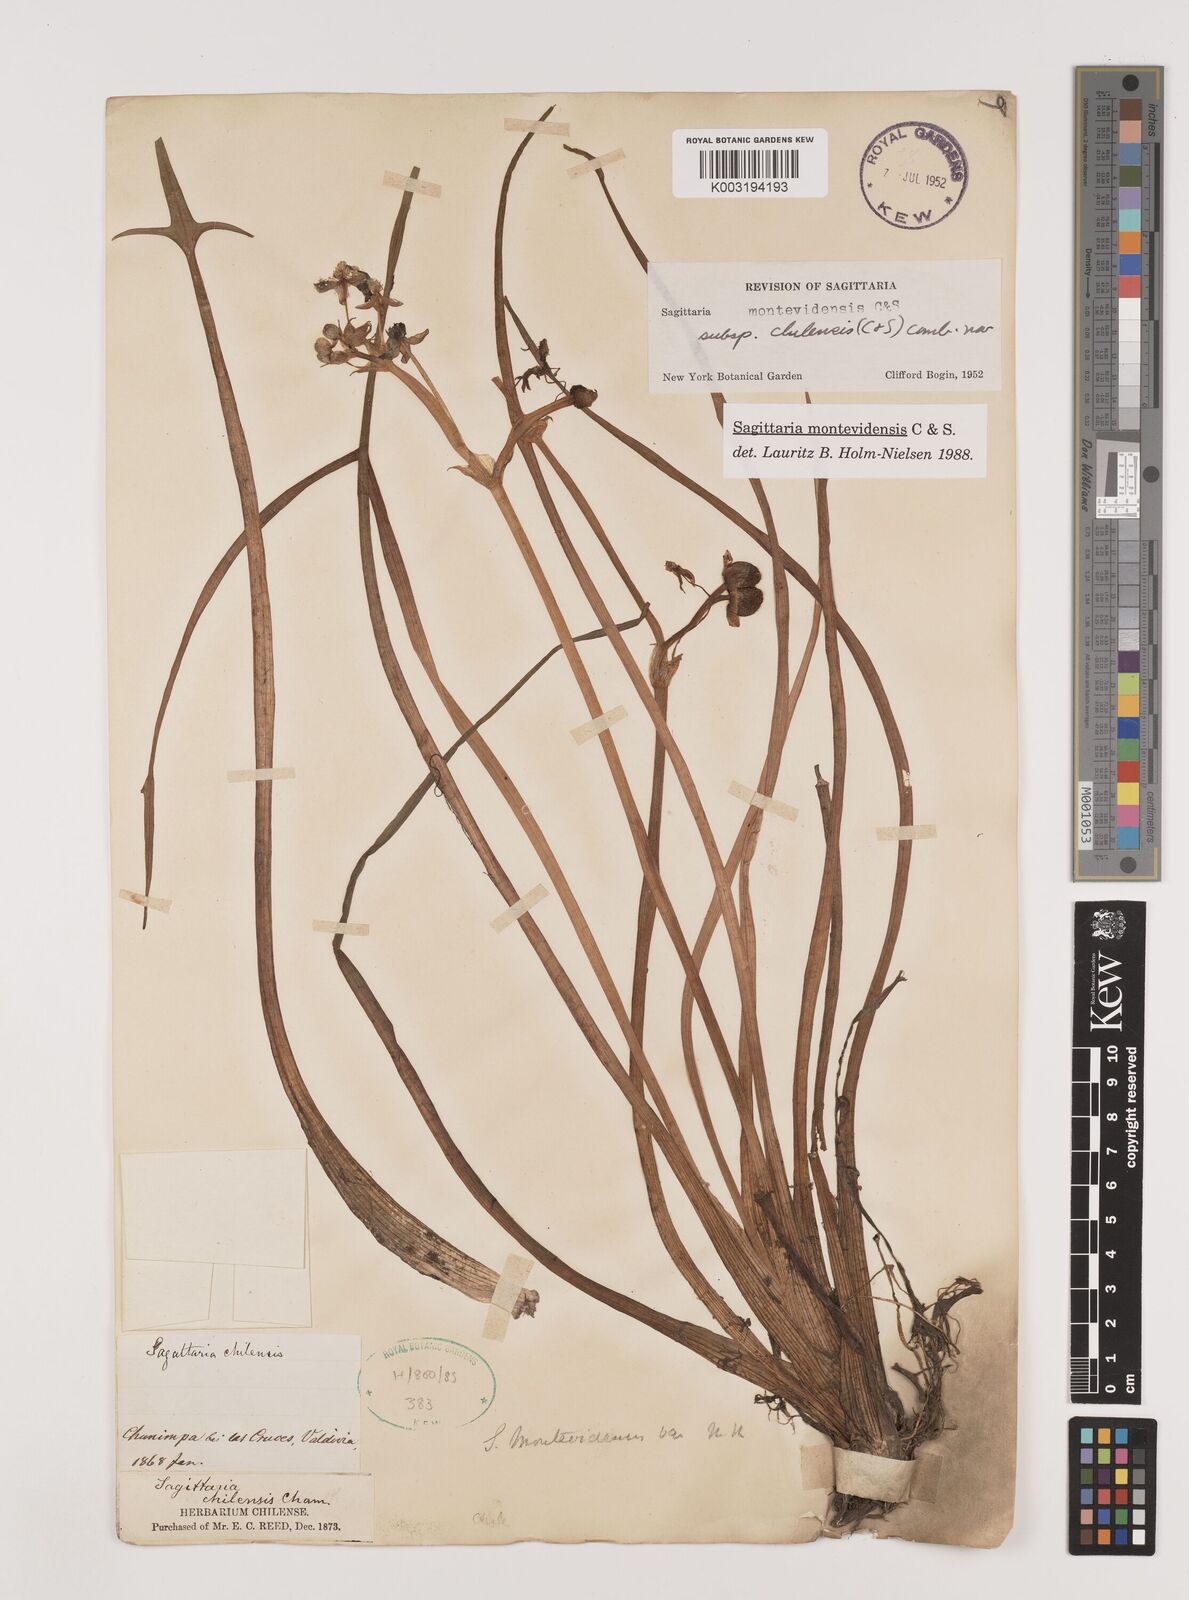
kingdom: Plantae
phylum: Tracheophyta
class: Liliopsida
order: Alismatales
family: Alismataceae
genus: Sagittaria
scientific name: Sagittaria montevidensis
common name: Giant arrowhead
